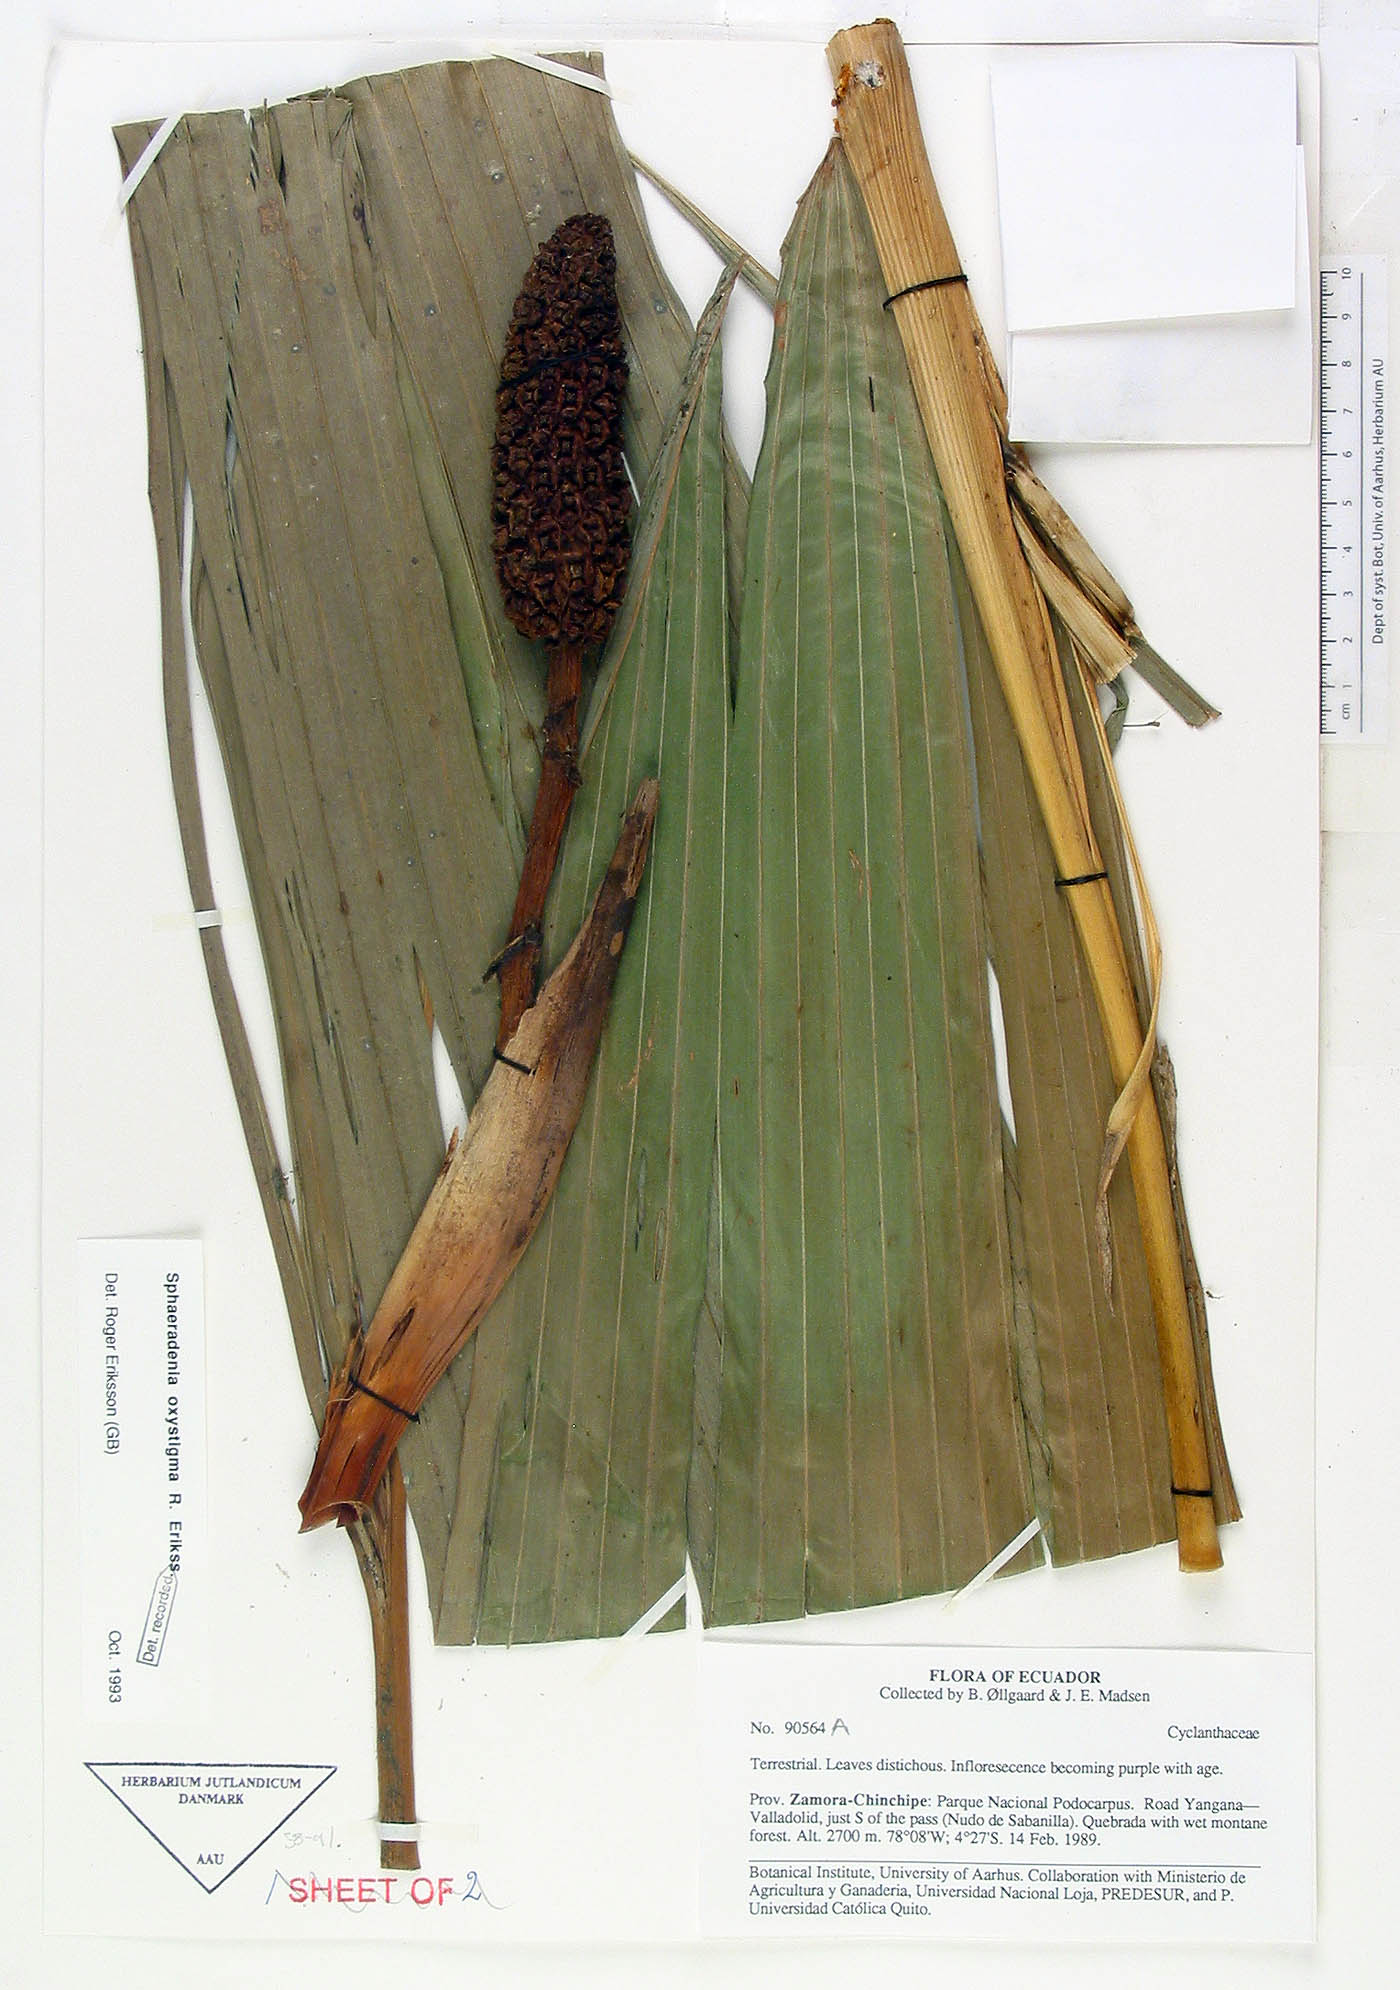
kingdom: Plantae
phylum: Tracheophyta
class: Liliopsida
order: Pandanales
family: Cyclanthaceae
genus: Sphaeradenia
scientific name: Sphaeradenia oxystigma
